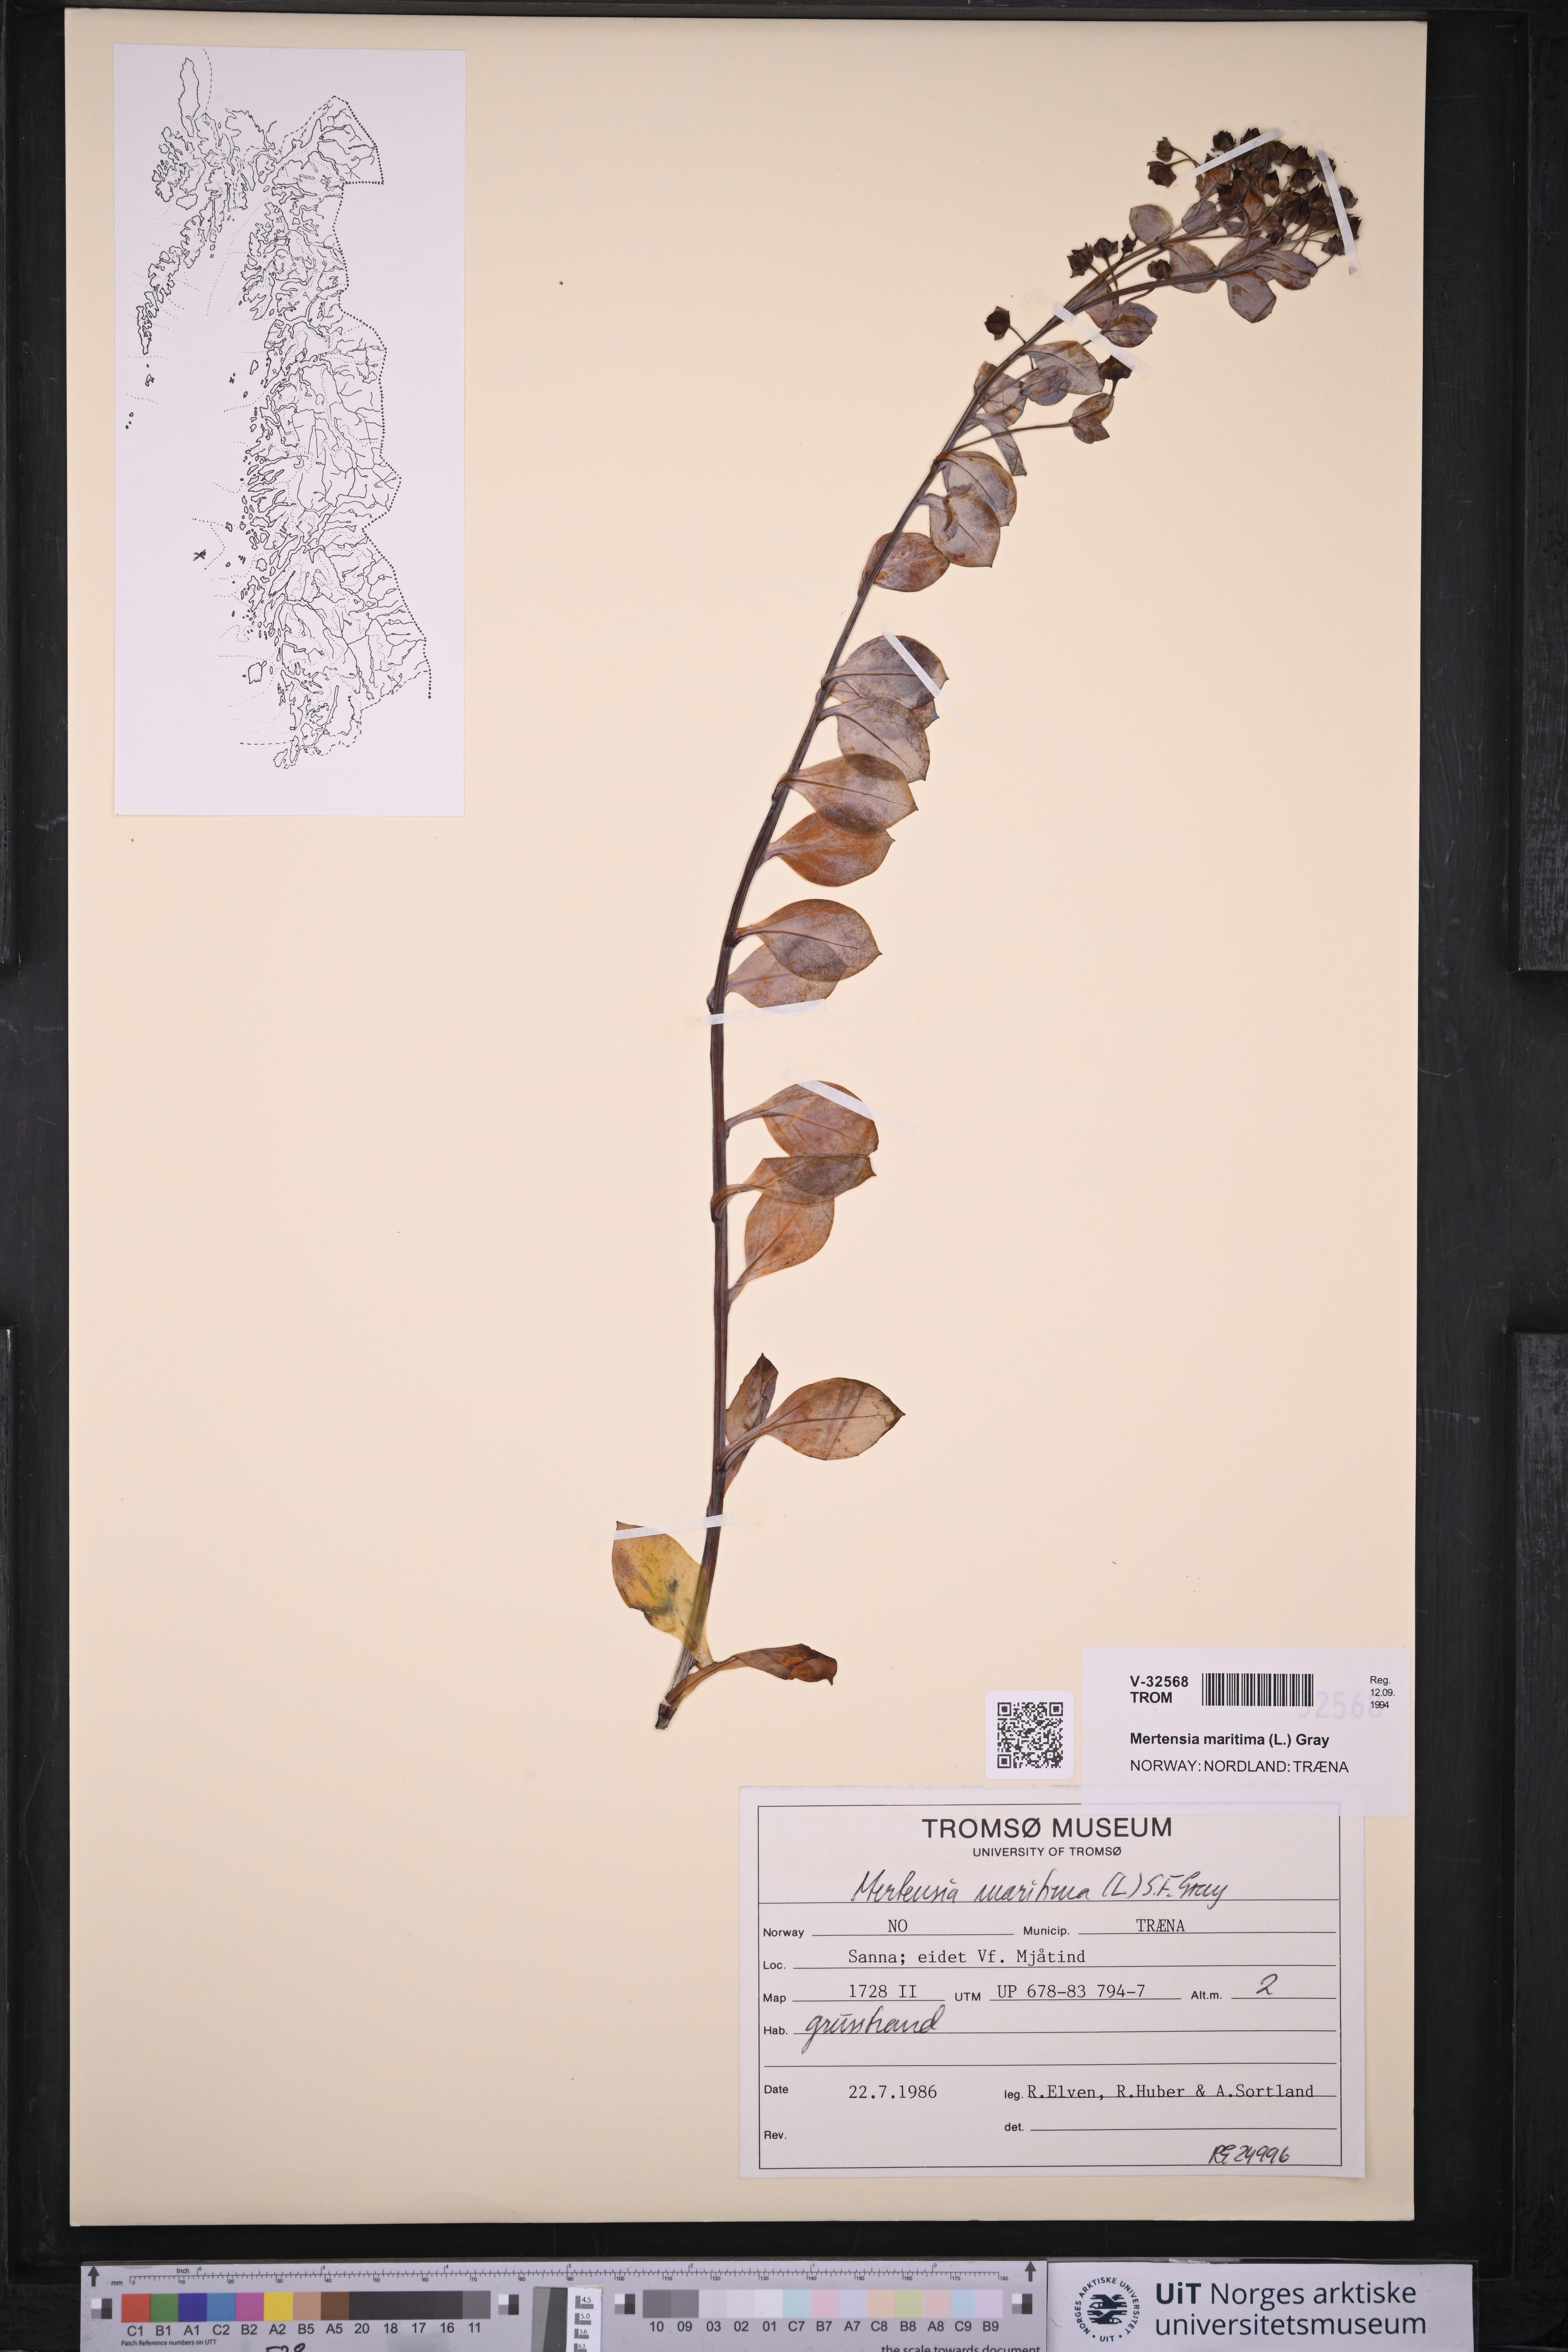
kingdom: Plantae
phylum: Tracheophyta
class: Magnoliopsida
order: Boraginales
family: Boraginaceae
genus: Mertensia
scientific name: Mertensia maritima
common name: Oysterplant
